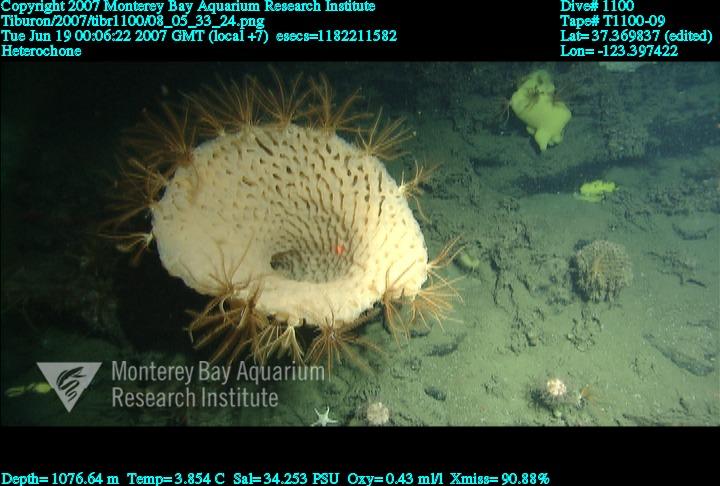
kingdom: Animalia
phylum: Porifera
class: Hexactinellida
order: Sceptrulophora
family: Aphrocallistidae
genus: Heterochone
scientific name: Heterochone
